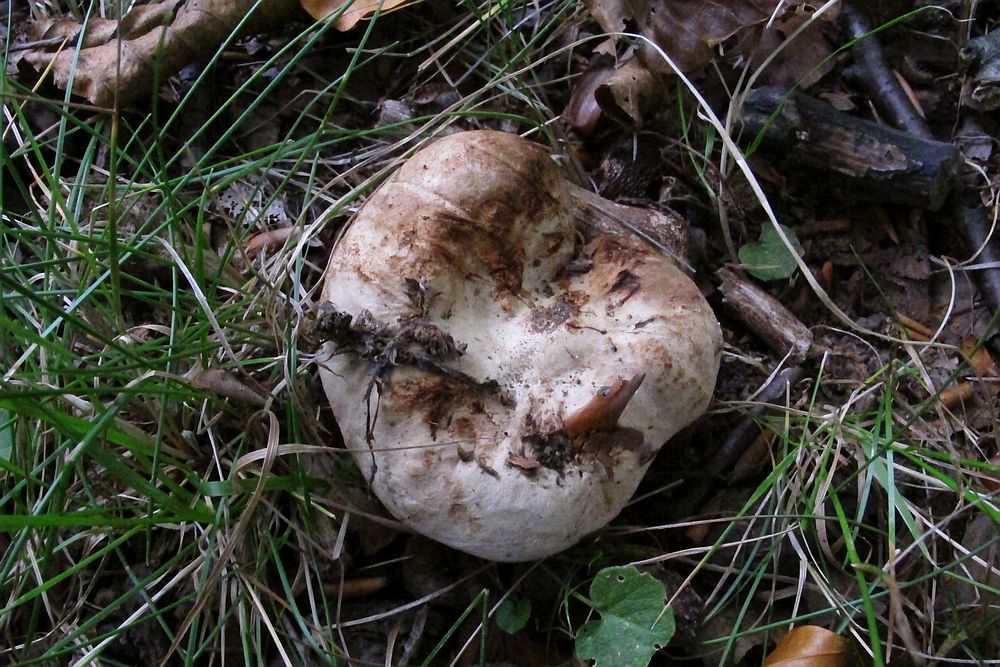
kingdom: Fungi
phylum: Basidiomycota
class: Agaricomycetes
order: Boletales
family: Paxillaceae
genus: Paxillus
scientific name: Paxillus obscurisporus
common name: mahognisporet netbladhat
